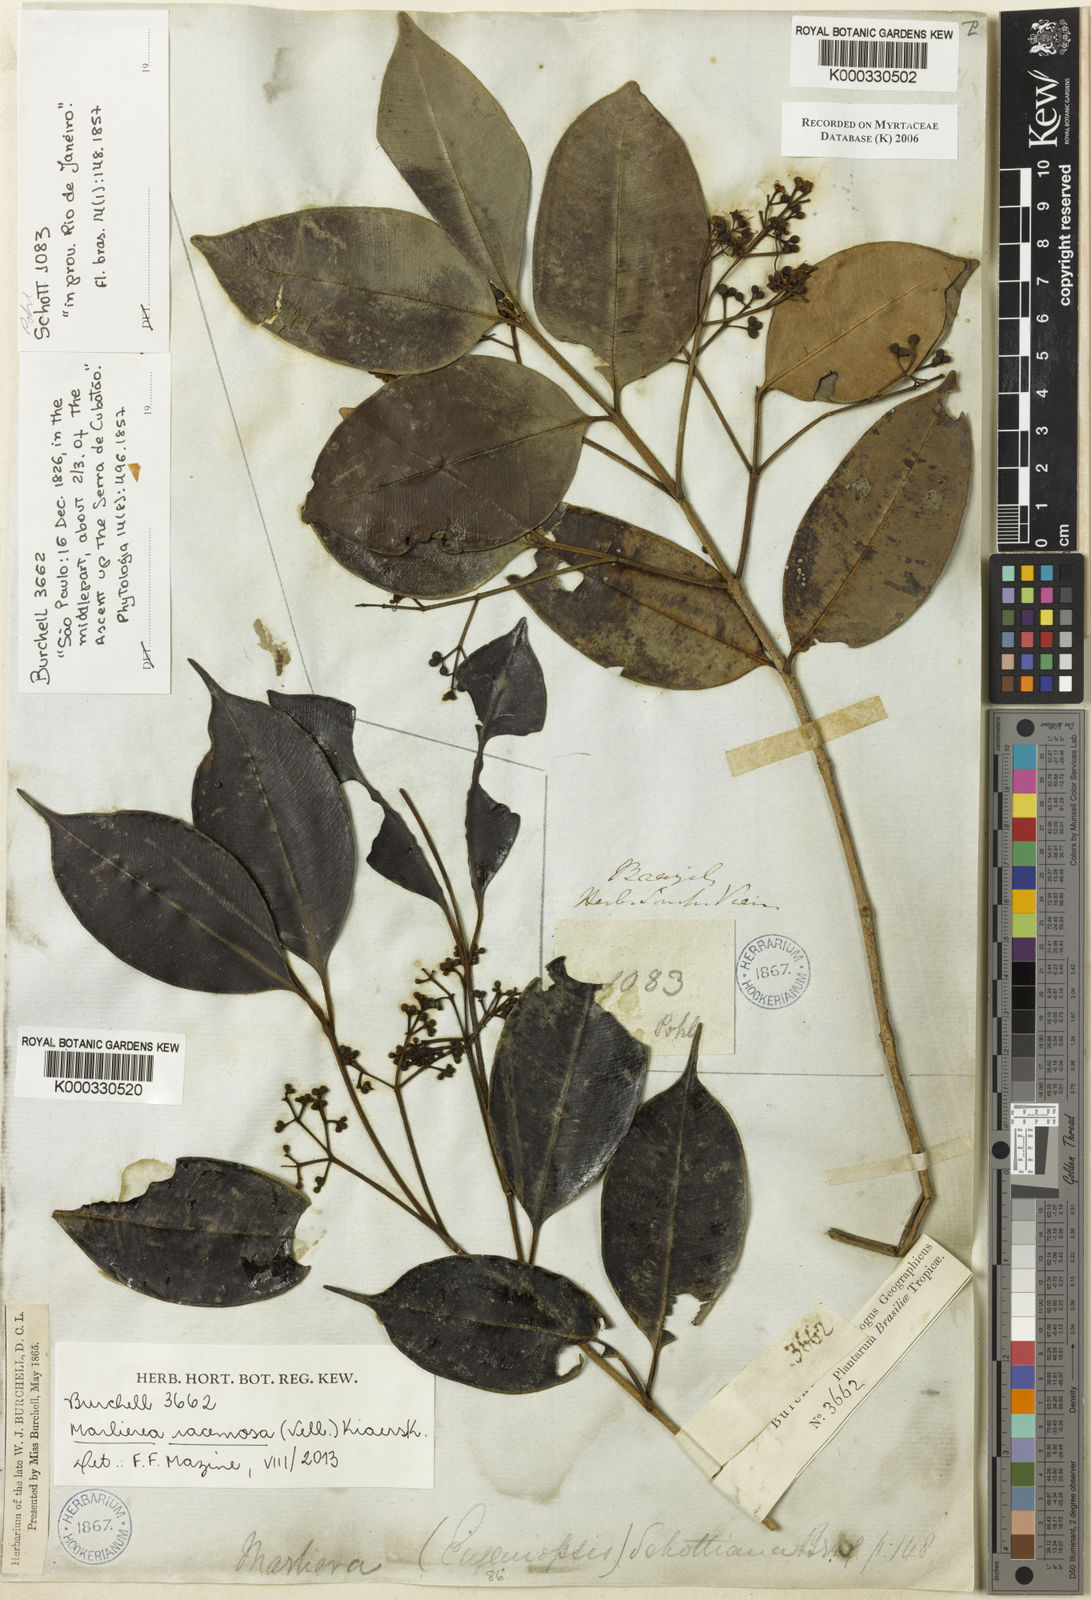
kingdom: Plantae
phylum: Tracheophyta
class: Magnoliopsida
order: Myrtales
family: Myrtaceae
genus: Myrcia
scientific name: Myrcia vellozoi
